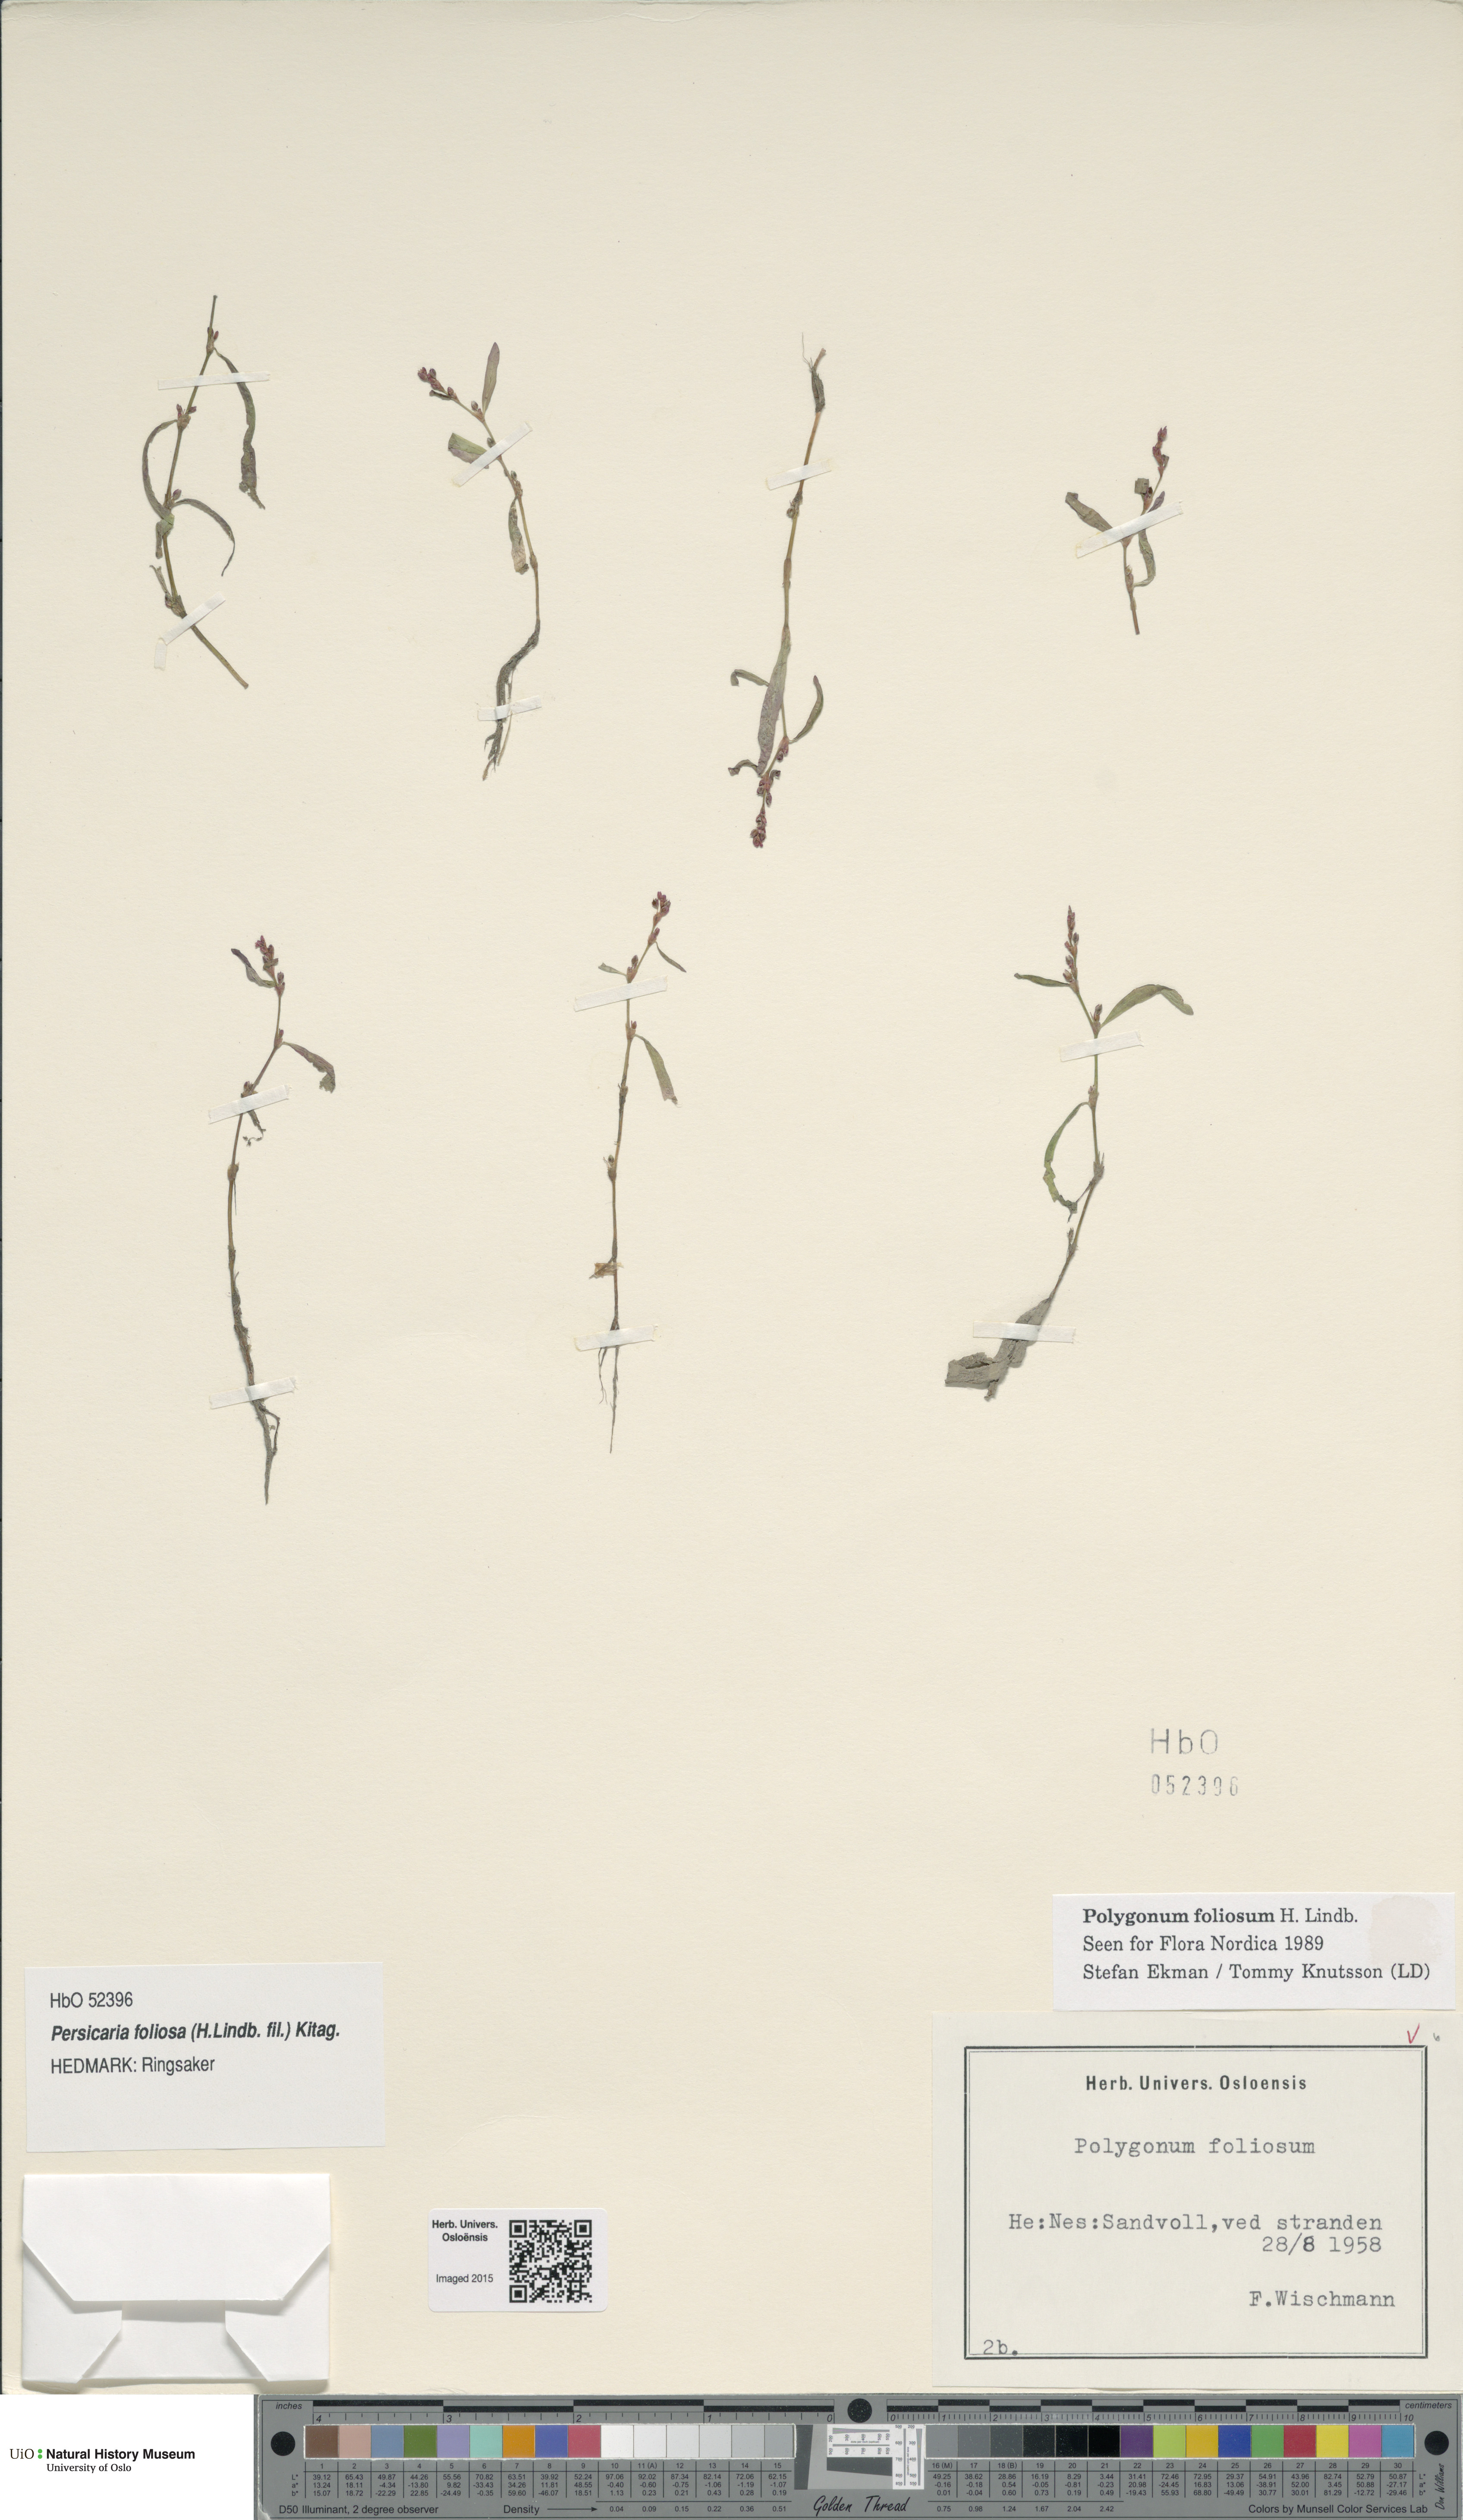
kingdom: Plantae
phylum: Tracheophyta
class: Magnoliopsida
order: Caryophyllales
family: Polygonaceae
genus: Persicaria
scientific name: Persicaria foliosa
